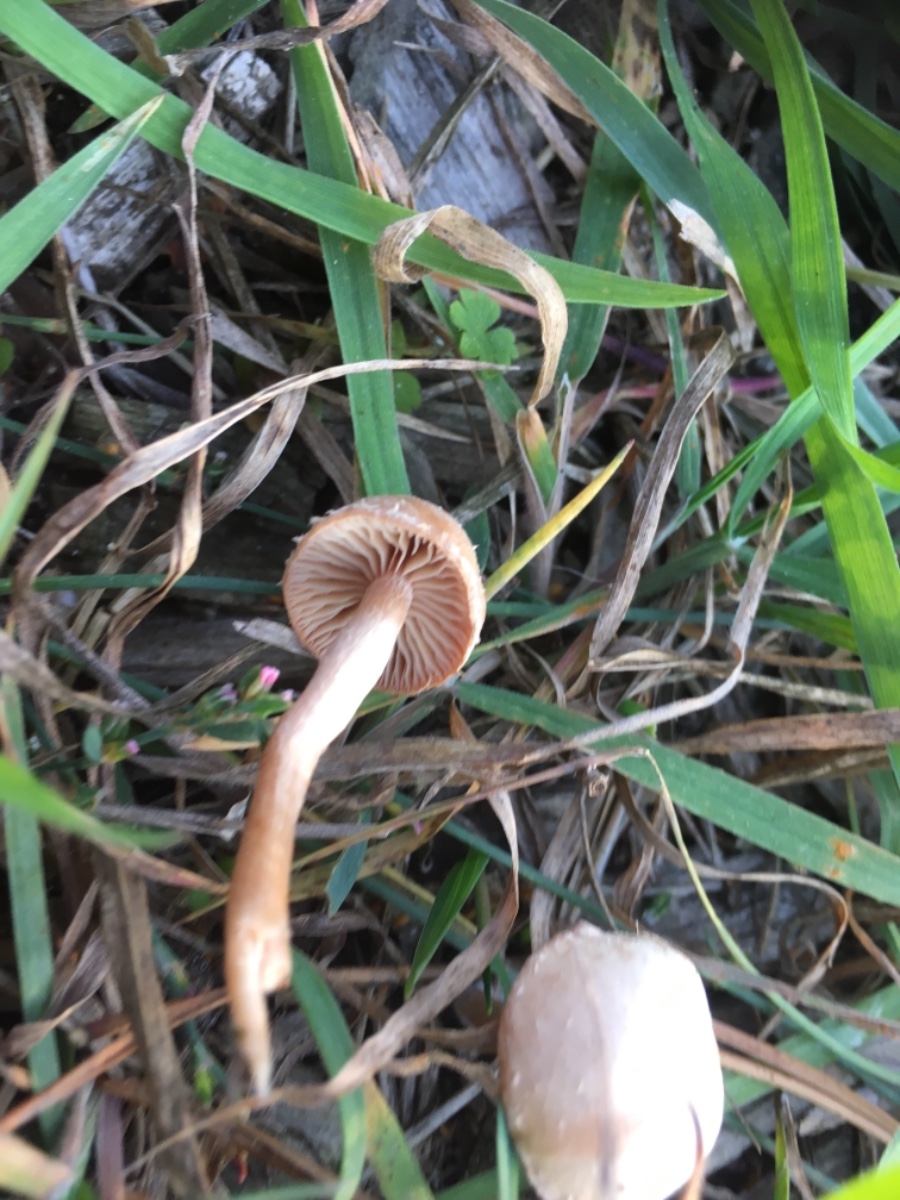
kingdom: Fungi
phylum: Basidiomycota
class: Agaricomycetes
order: Agaricales
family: Tubariaceae
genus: Tubaria
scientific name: Tubaria furfuracea
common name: kliddet fnughat
